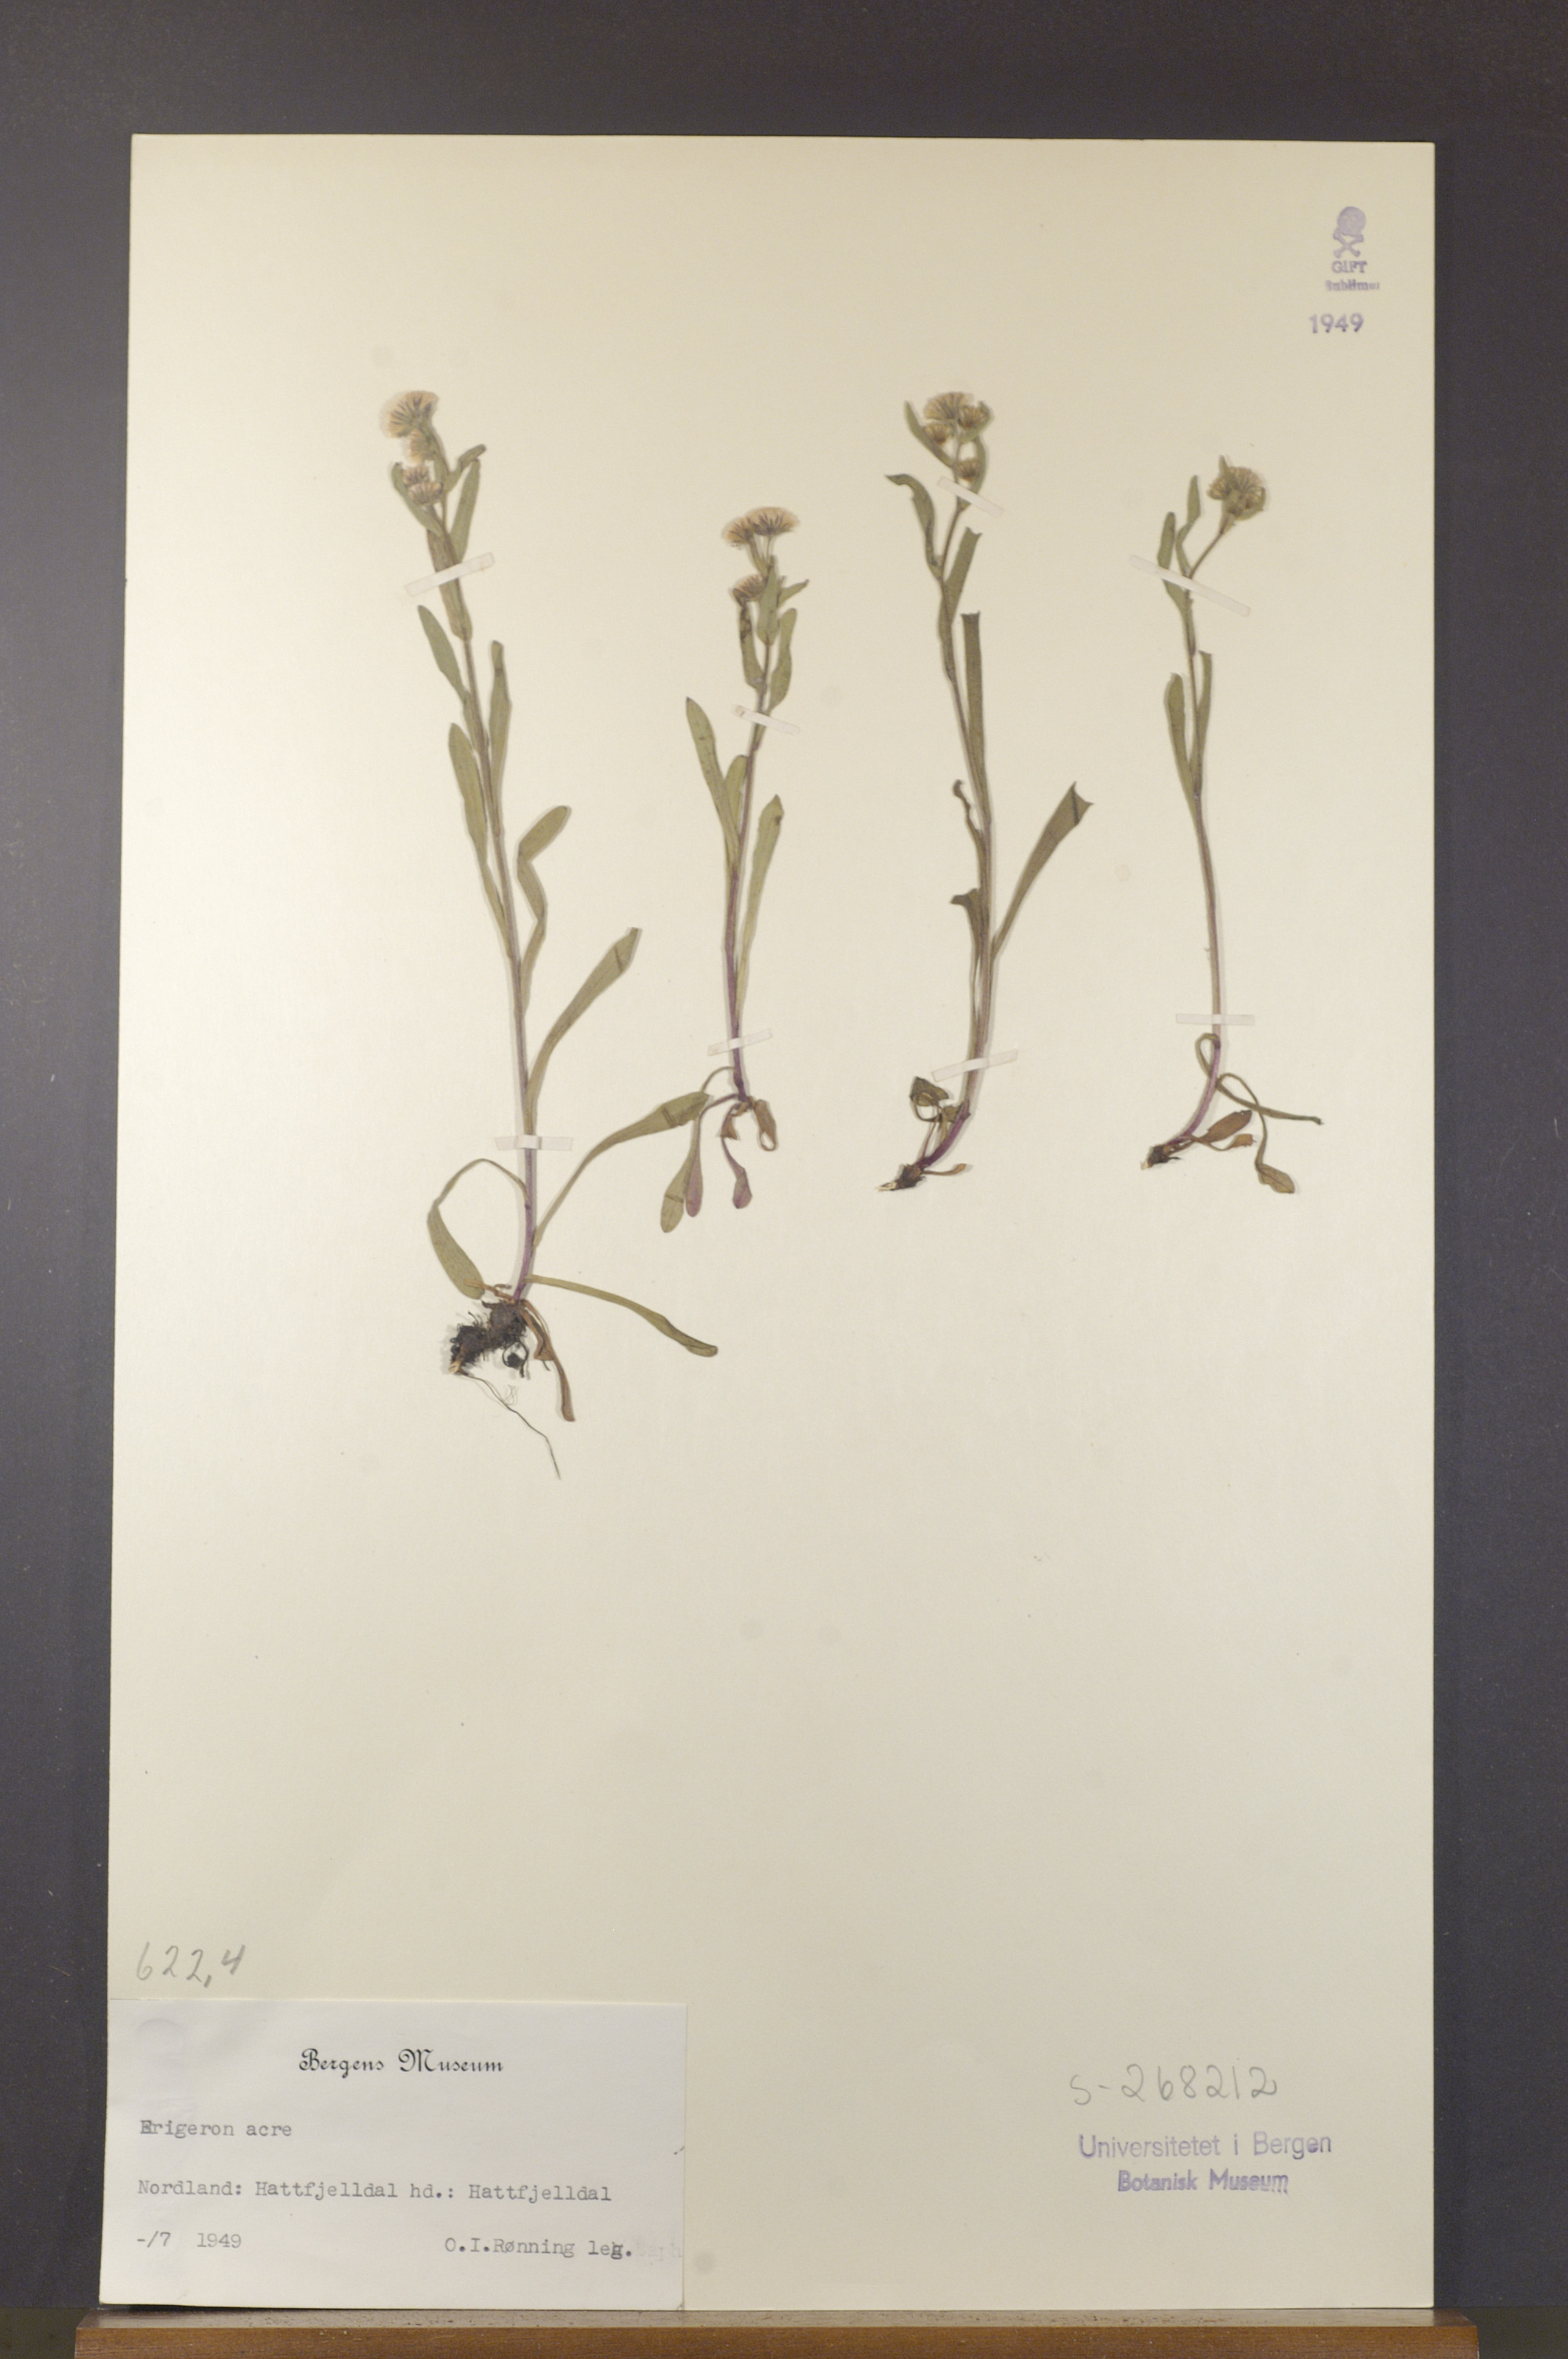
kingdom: Plantae
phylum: Tracheophyta
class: Magnoliopsida
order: Asterales
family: Asteraceae
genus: Erigeron
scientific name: Erigeron acris
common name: Blue fleabane
